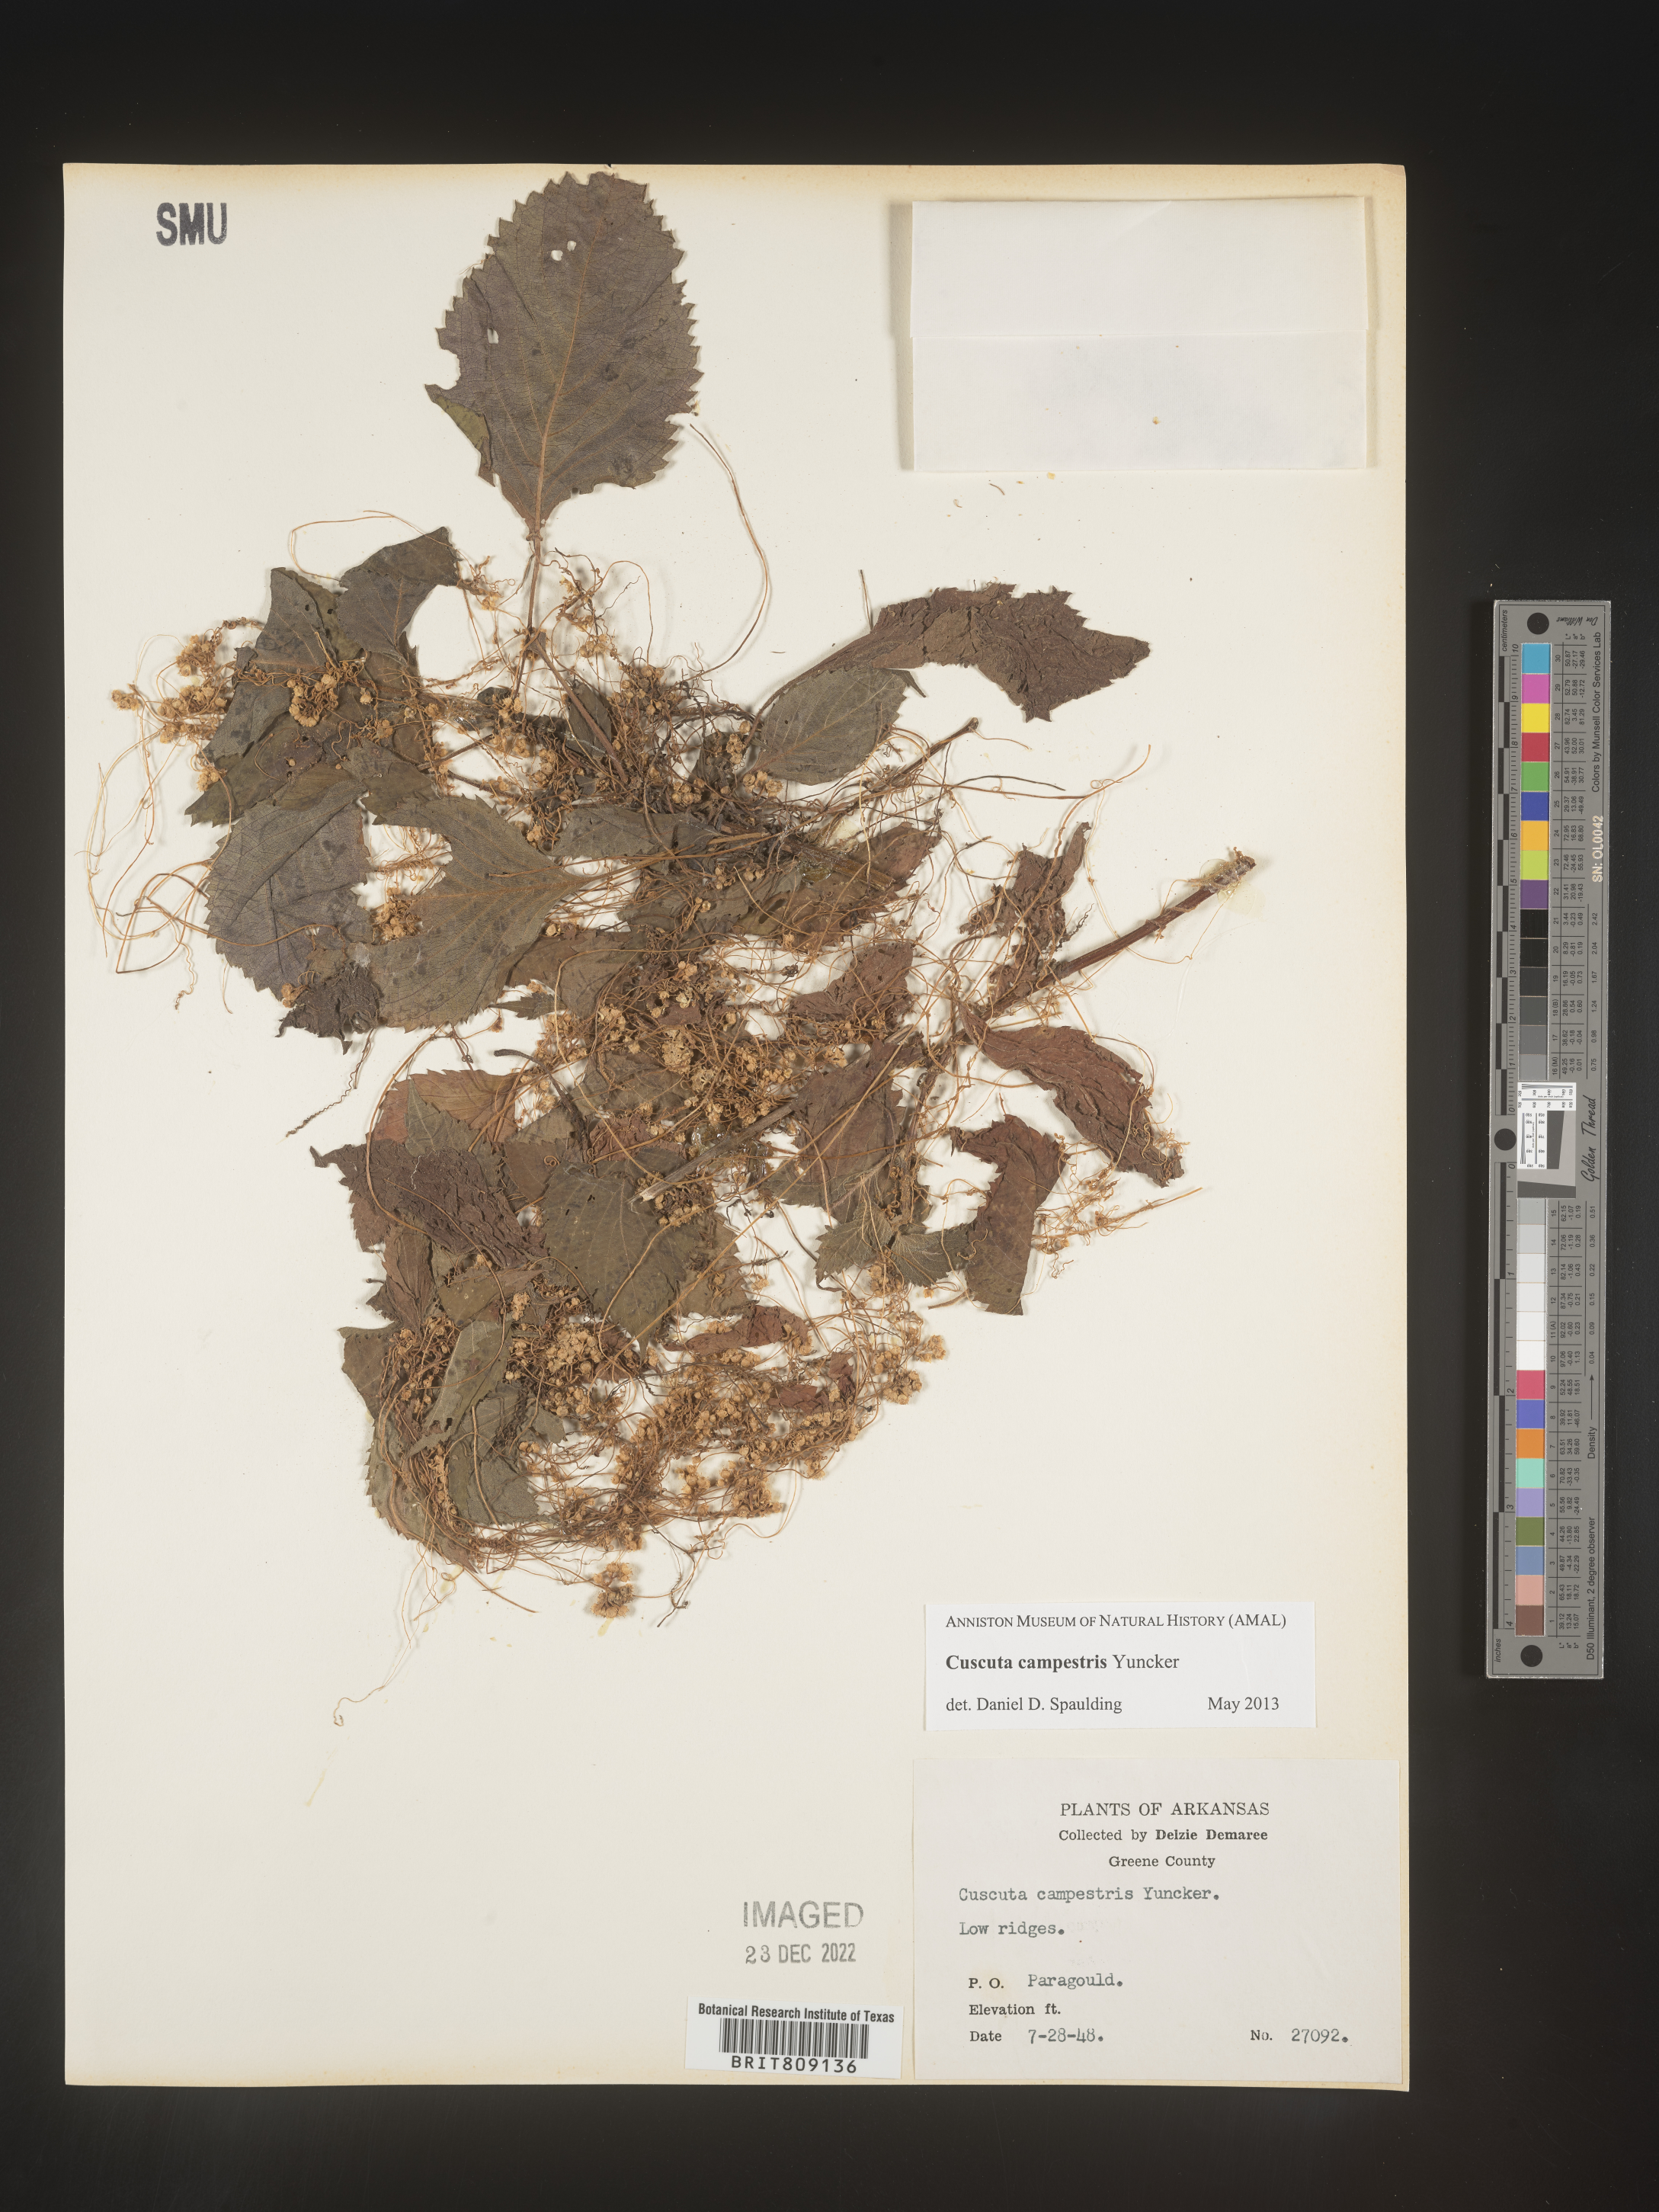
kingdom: Plantae
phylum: Tracheophyta
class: Magnoliopsida
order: Solanales
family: Convolvulaceae
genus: Cuscuta
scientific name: Cuscuta campestris
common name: Yellow dodder
